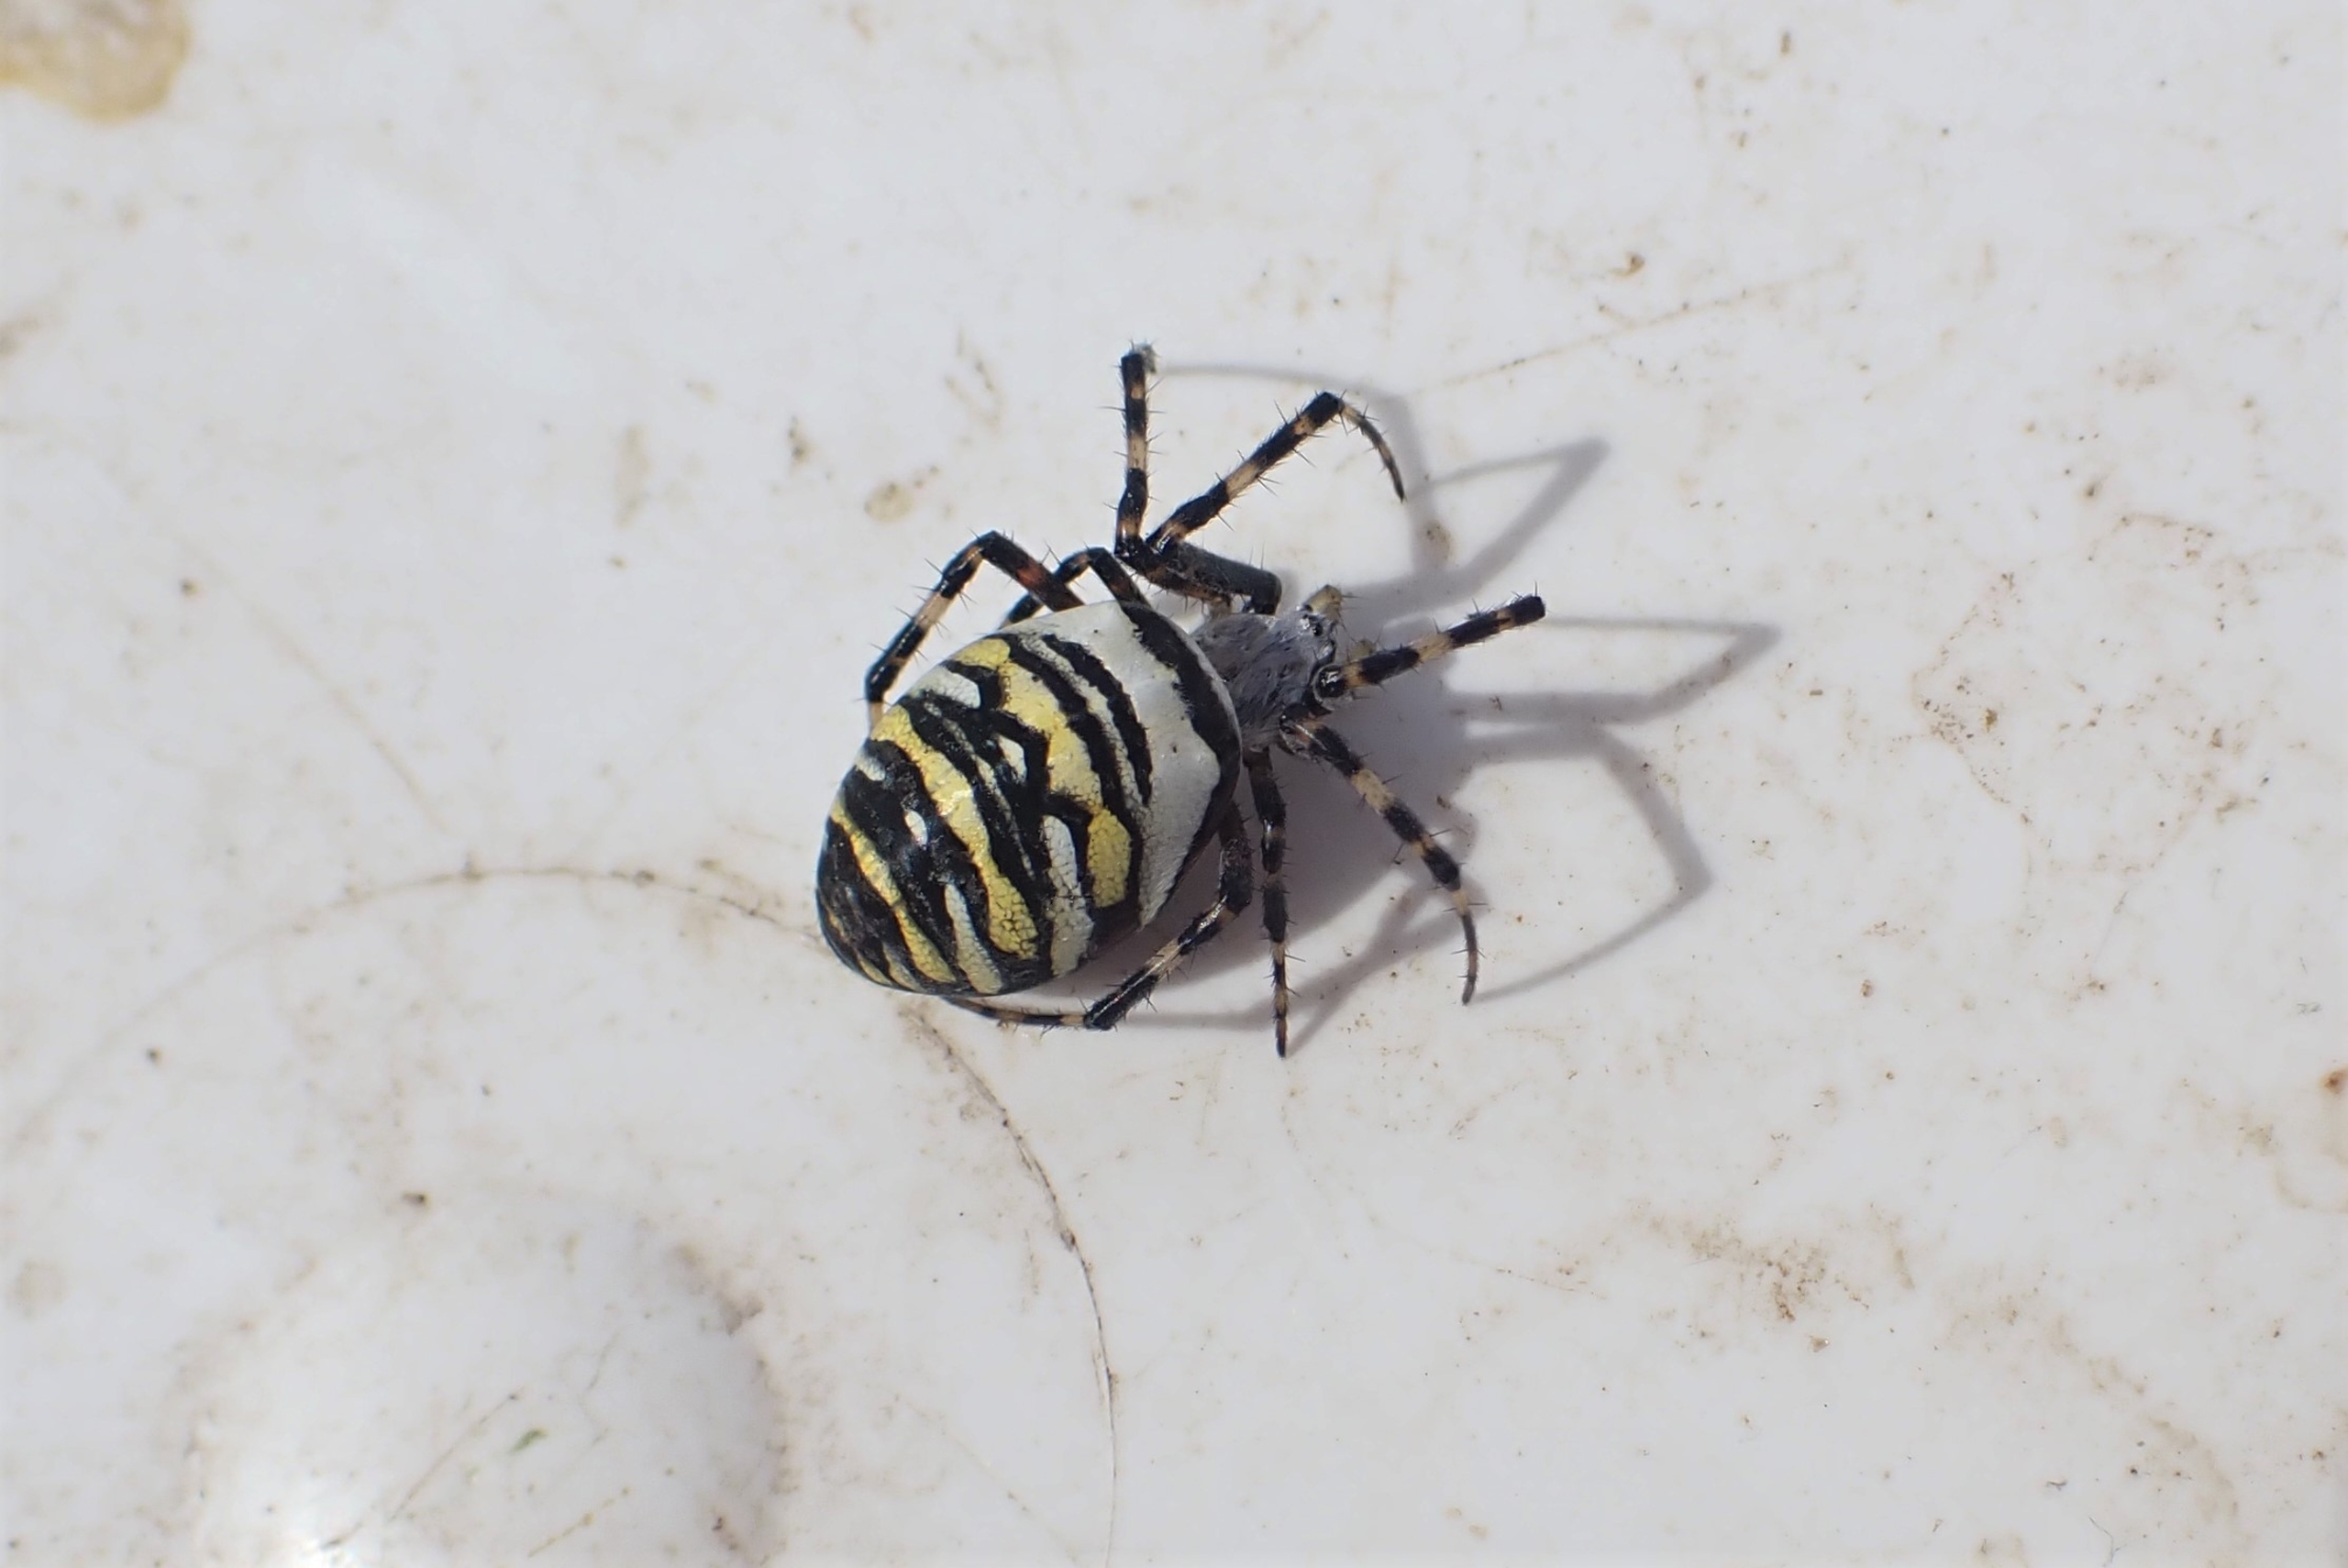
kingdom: Animalia
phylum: Arthropoda
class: Arachnida
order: Araneae
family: Araneidae
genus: Argiope
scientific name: Argiope bruennichi
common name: Hvepseedderkop
